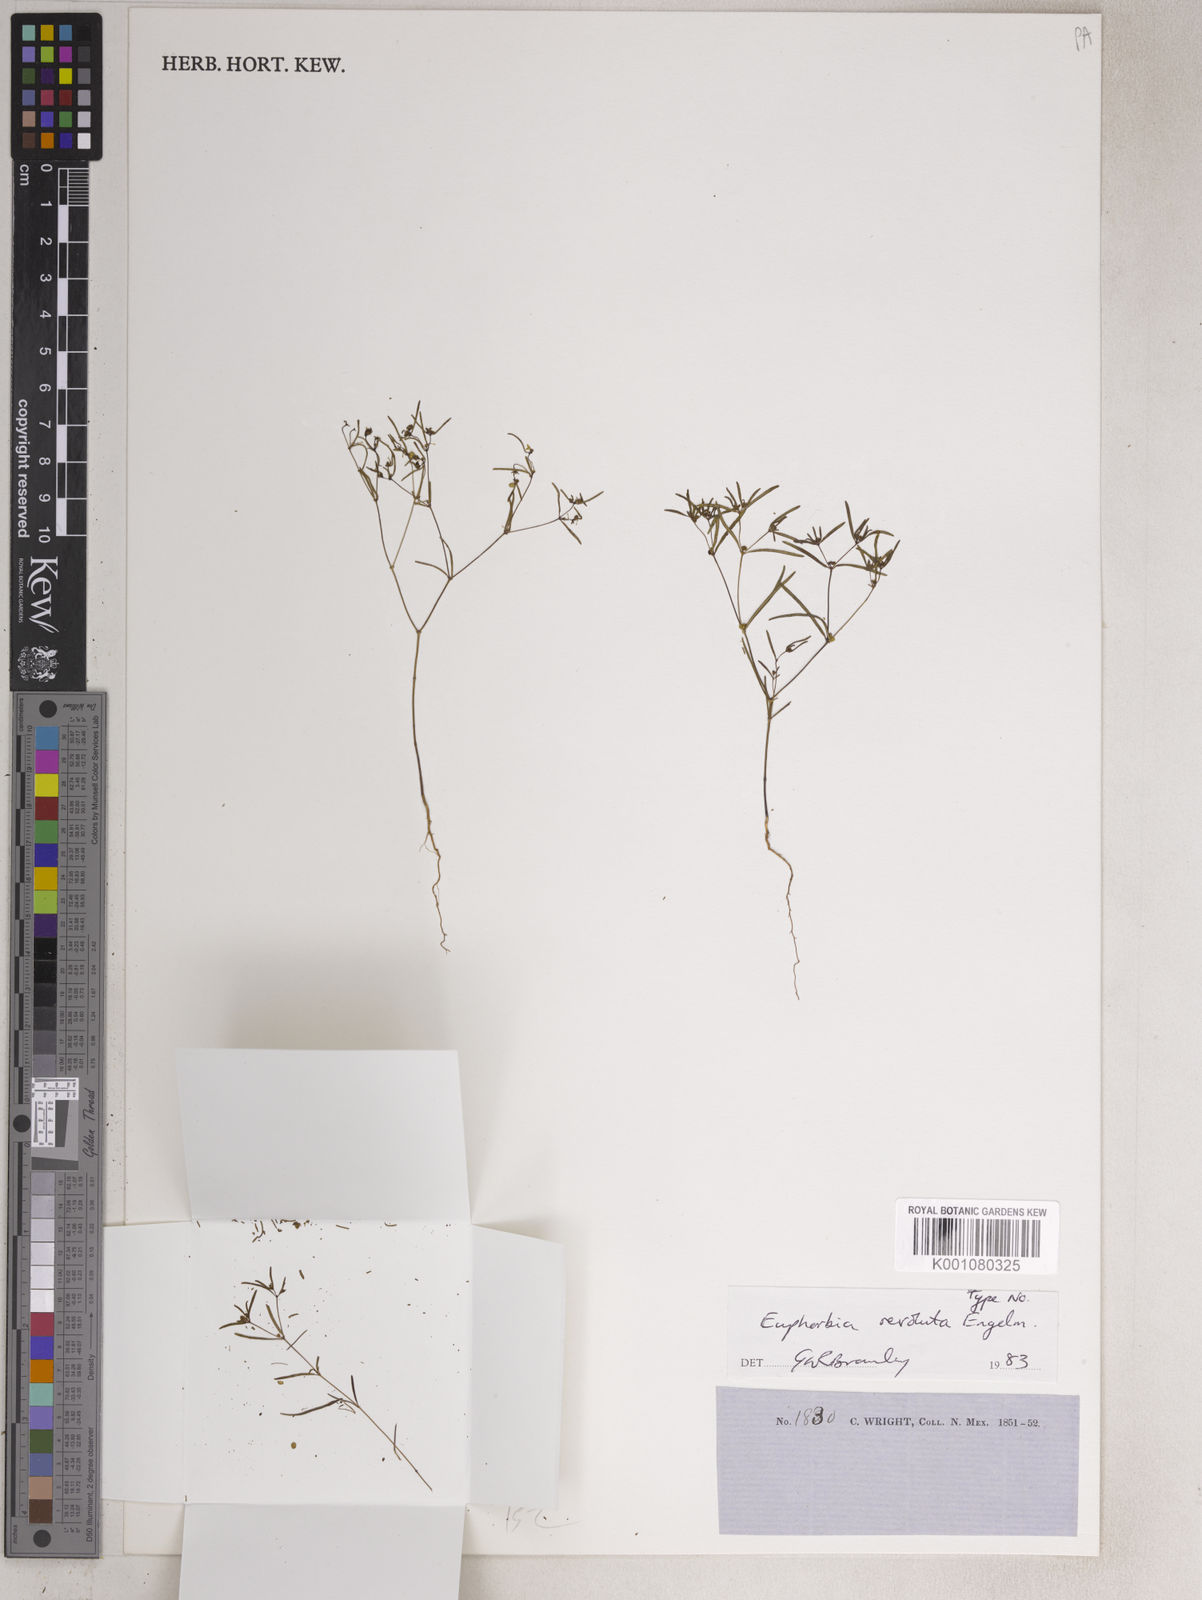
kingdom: Plantae
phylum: Tracheophyta
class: Magnoliopsida
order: Malpighiales
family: Euphorbiaceae
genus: Euphorbia
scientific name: Euphorbia revoluta
